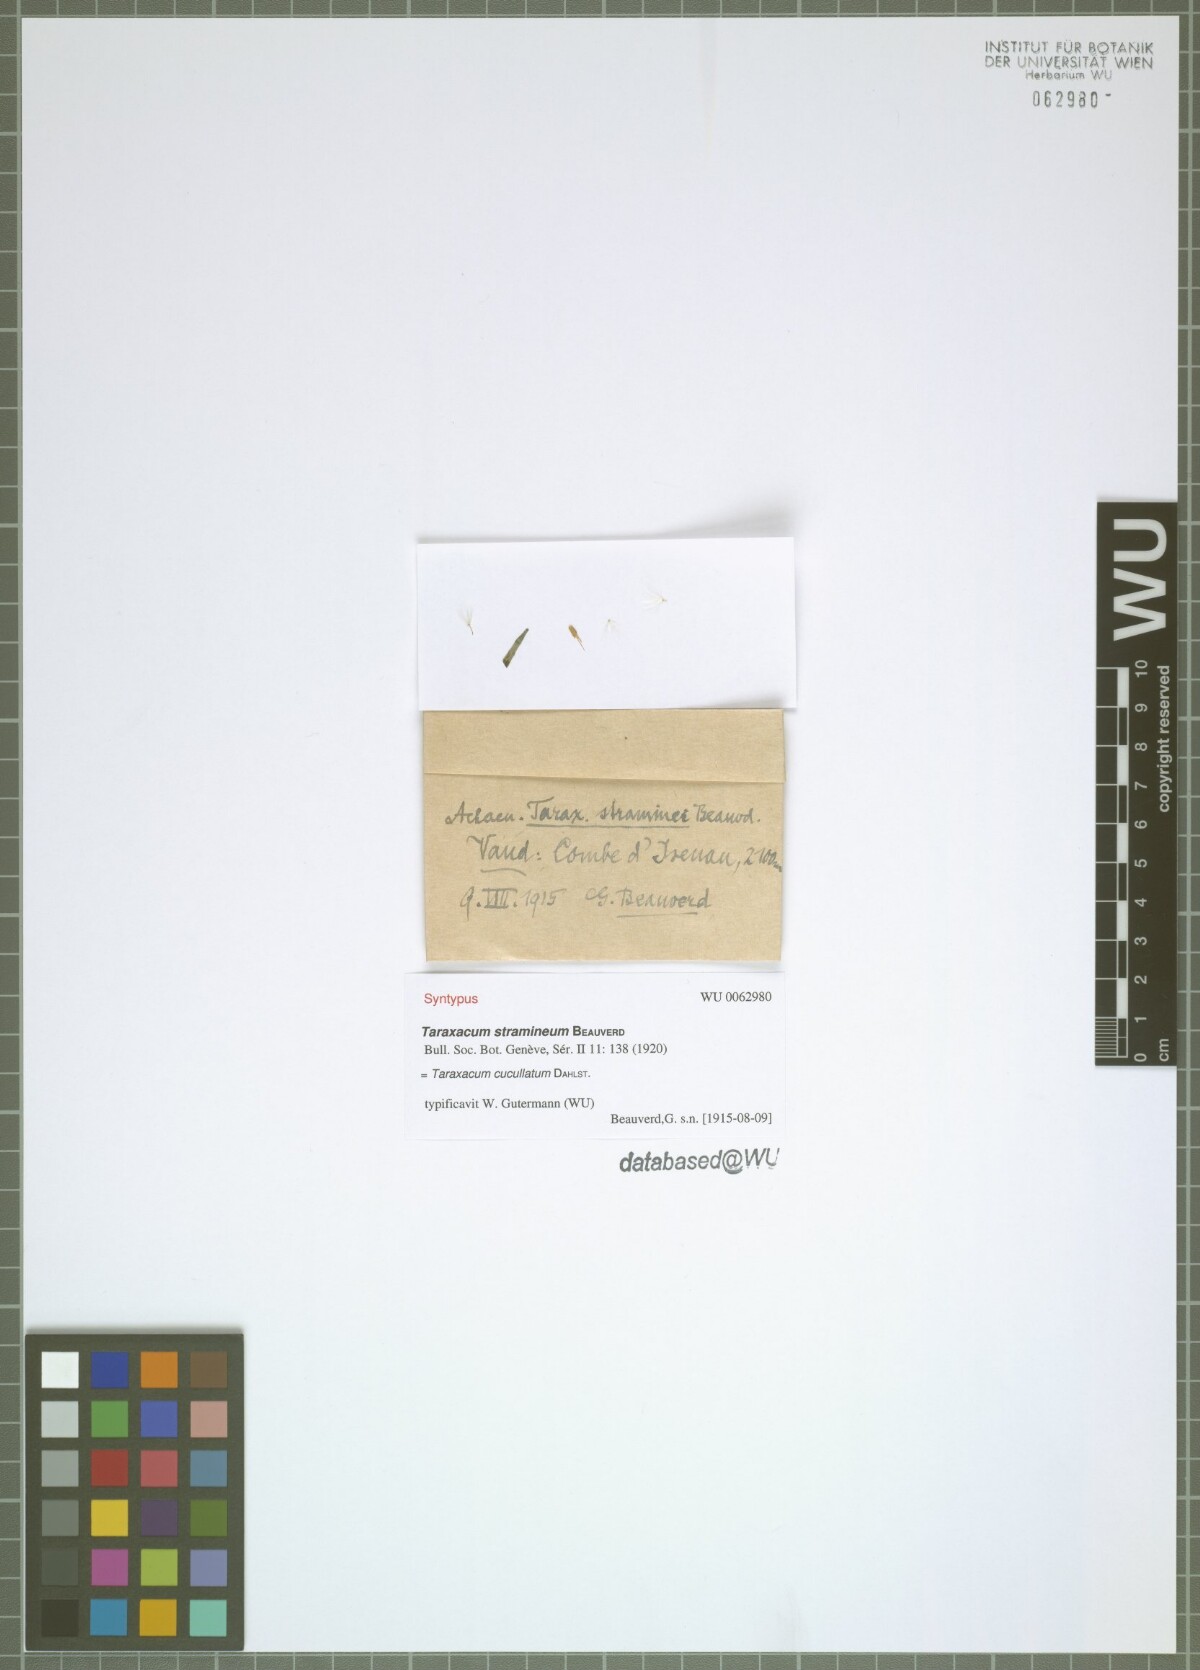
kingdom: Plantae
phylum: Tracheophyta
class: Magnoliopsida
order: Asterales
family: Asteraceae
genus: Taraxacum
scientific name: Taraxacum cucullatum
